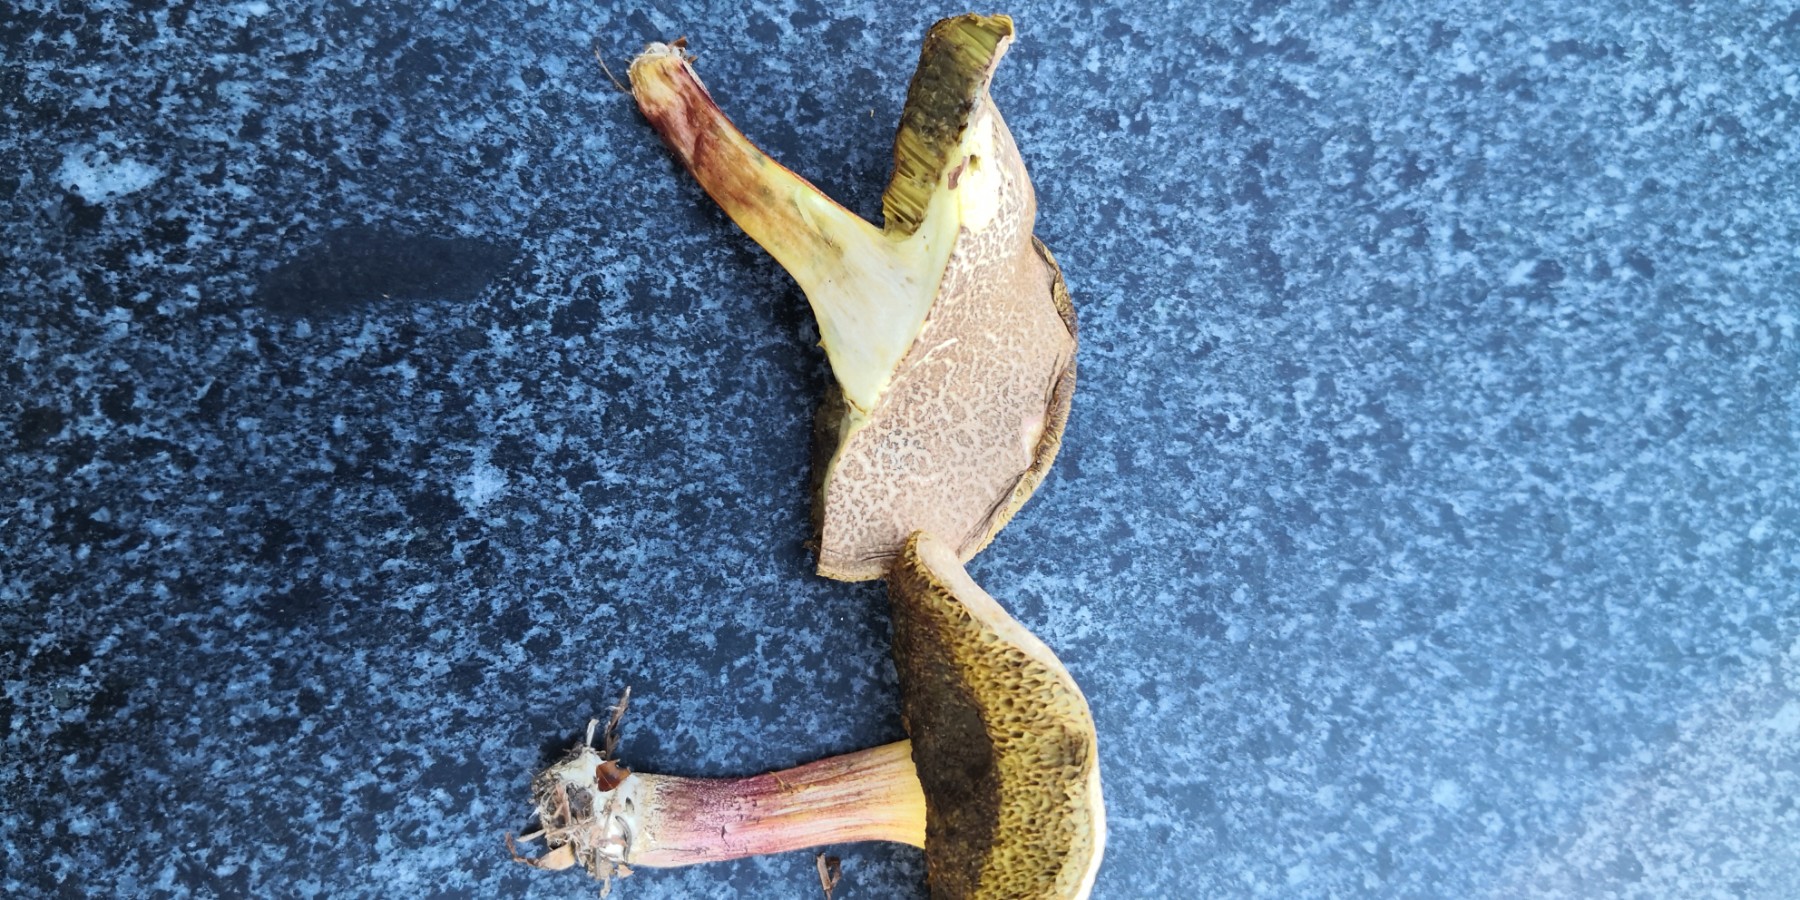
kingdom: Fungi
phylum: Basidiomycota
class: Agaricomycetes
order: Boletales
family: Boletaceae
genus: Xerocomellus
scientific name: Xerocomellus chrysenteron
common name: rødsprukken rørhat
